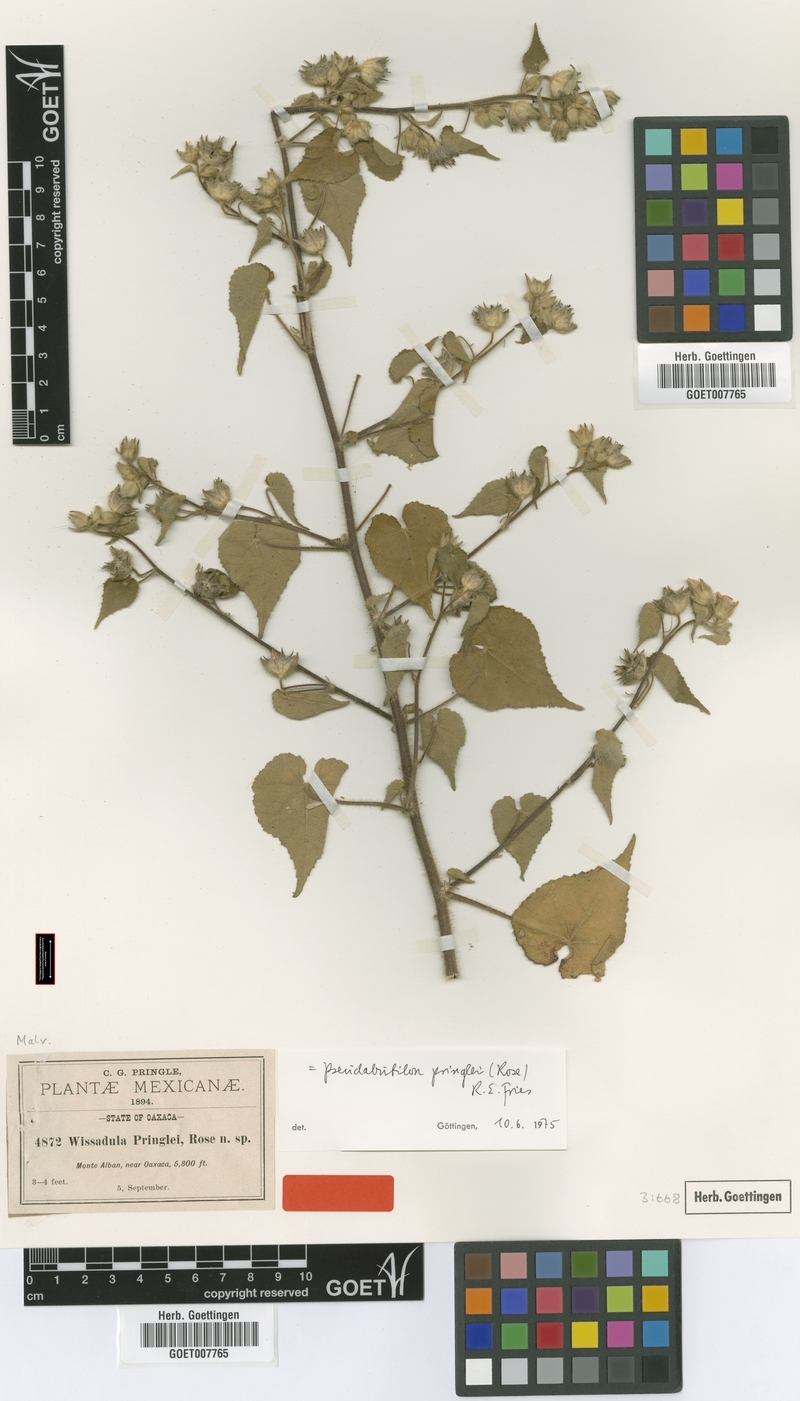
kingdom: Plantae
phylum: Tracheophyta
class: Magnoliopsida
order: Malvales
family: Malvaceae
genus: Allowissadula
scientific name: Allowissadula pringlei
